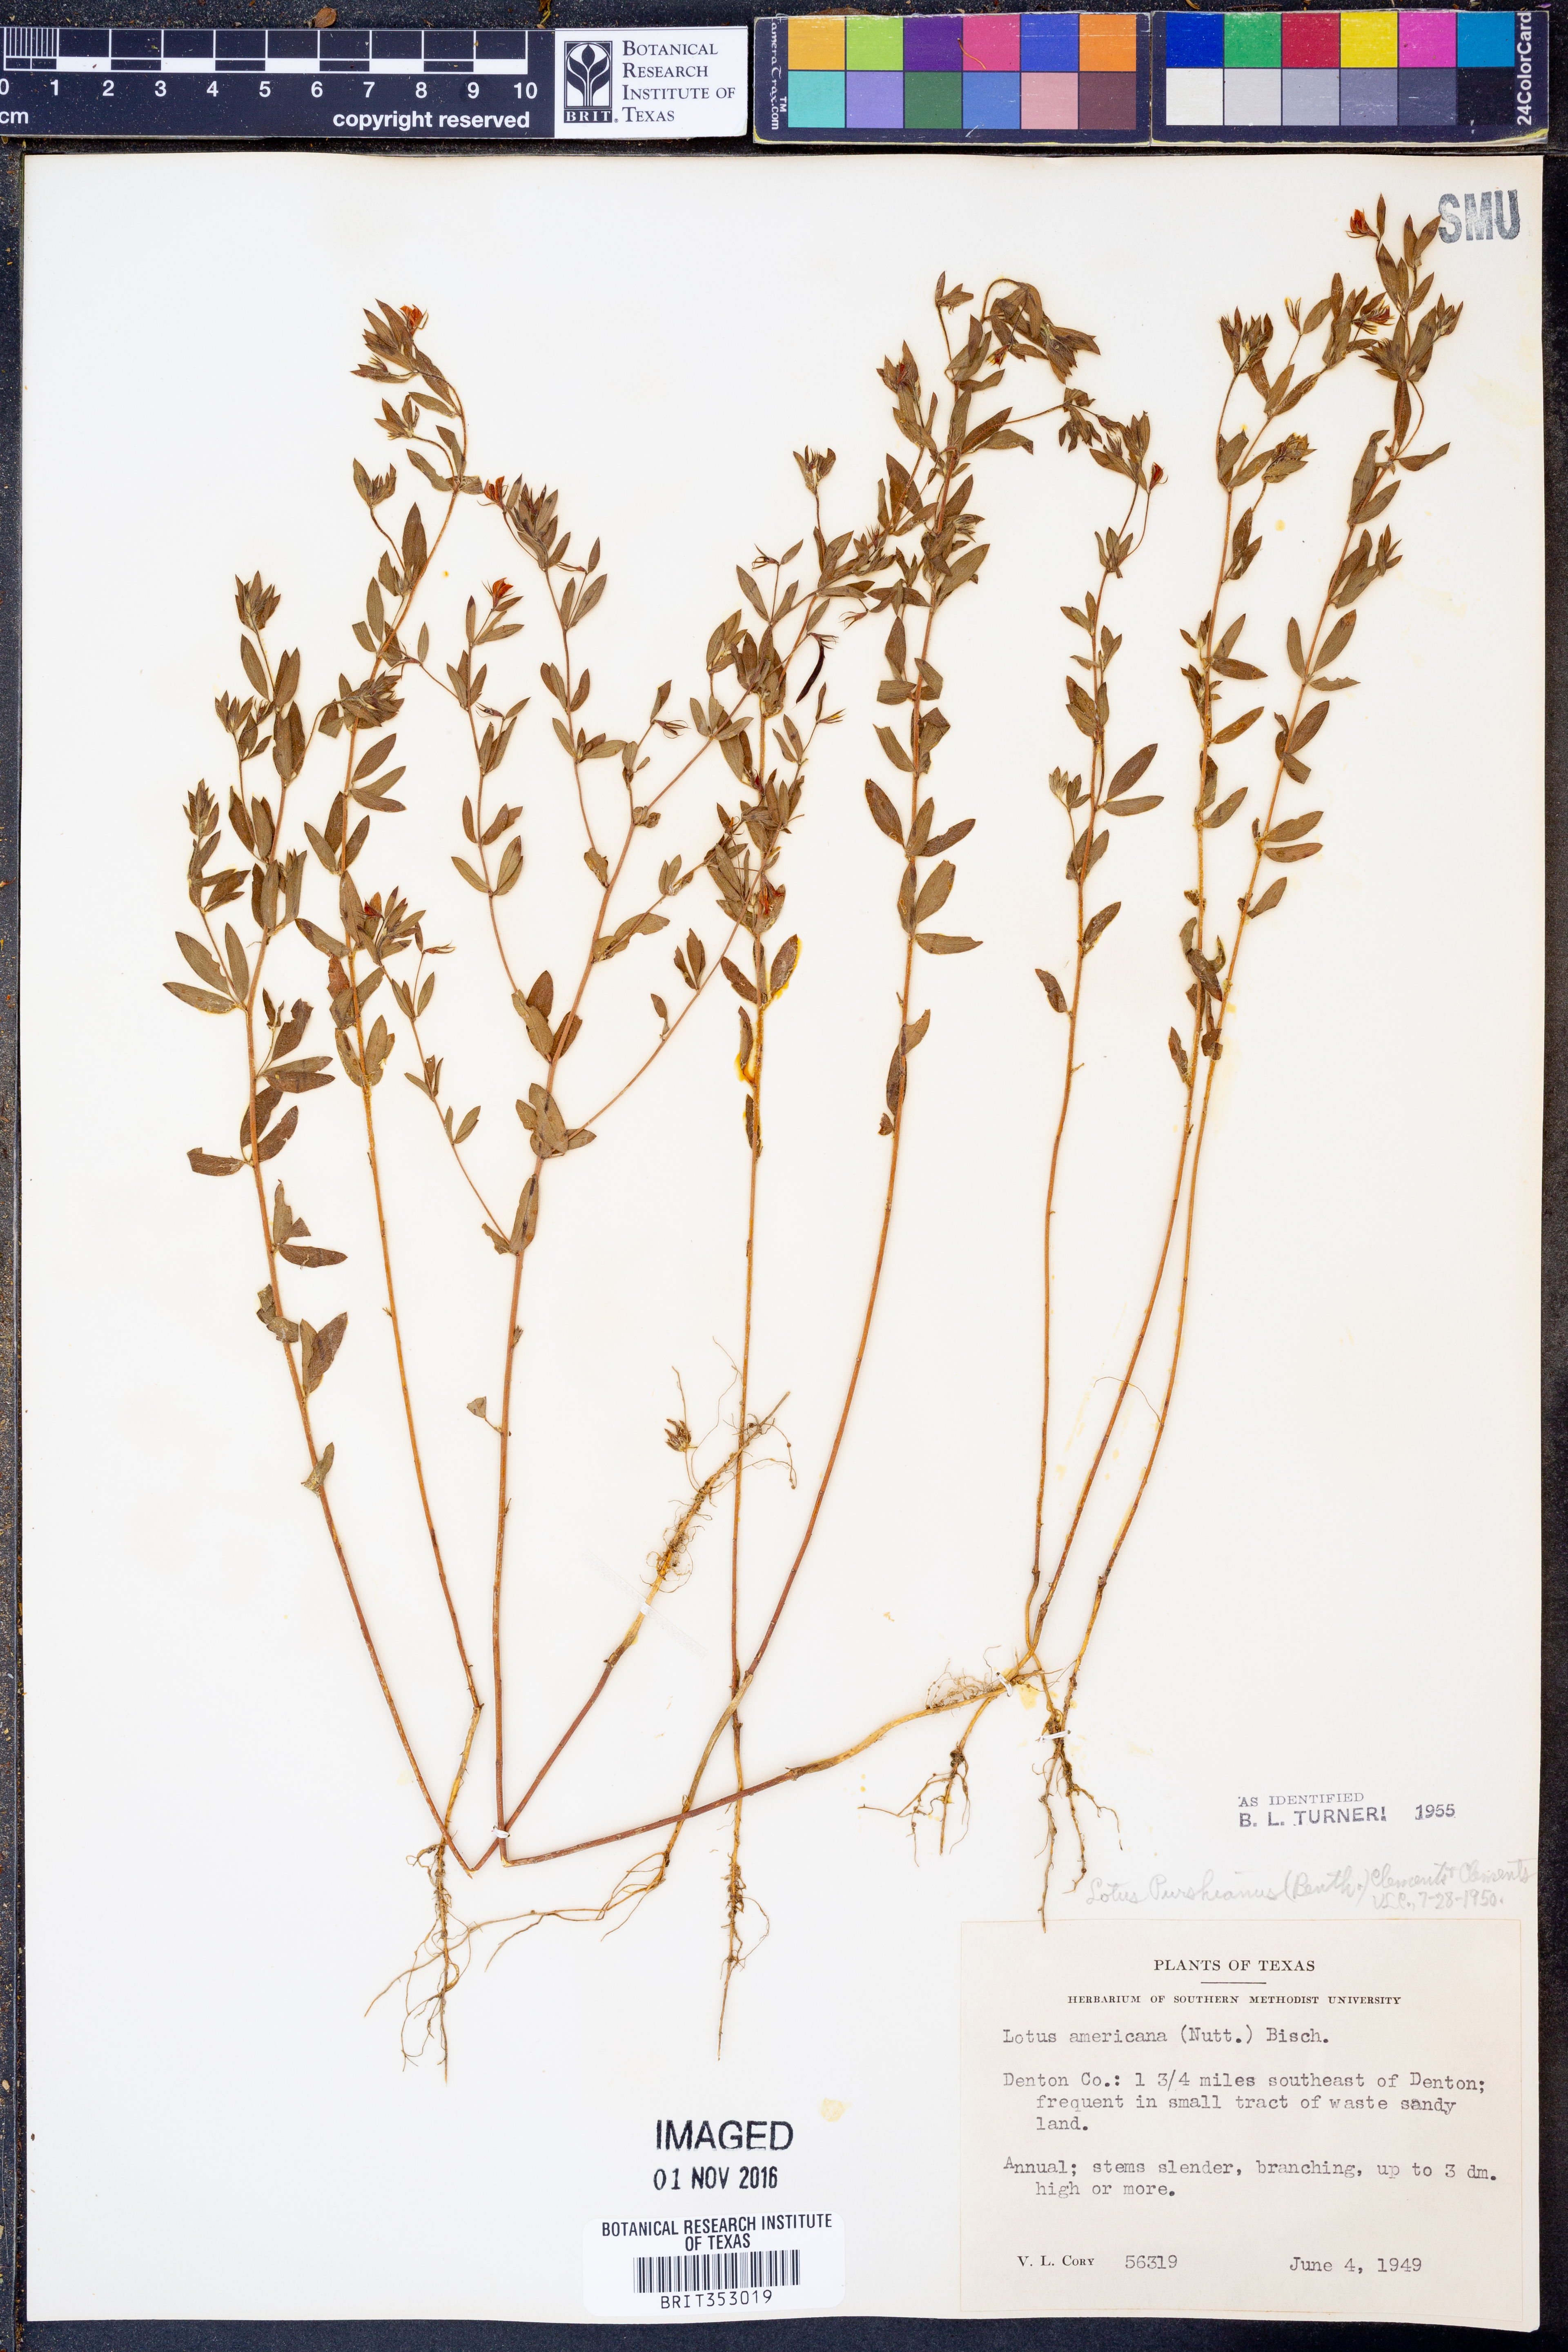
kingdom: Plantae
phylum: Tracheophyta
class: Magnoliopsida
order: Fabales
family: Fabaceae
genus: Acmispon
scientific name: Acmispon americanus
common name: American bird's-foot trefoil
